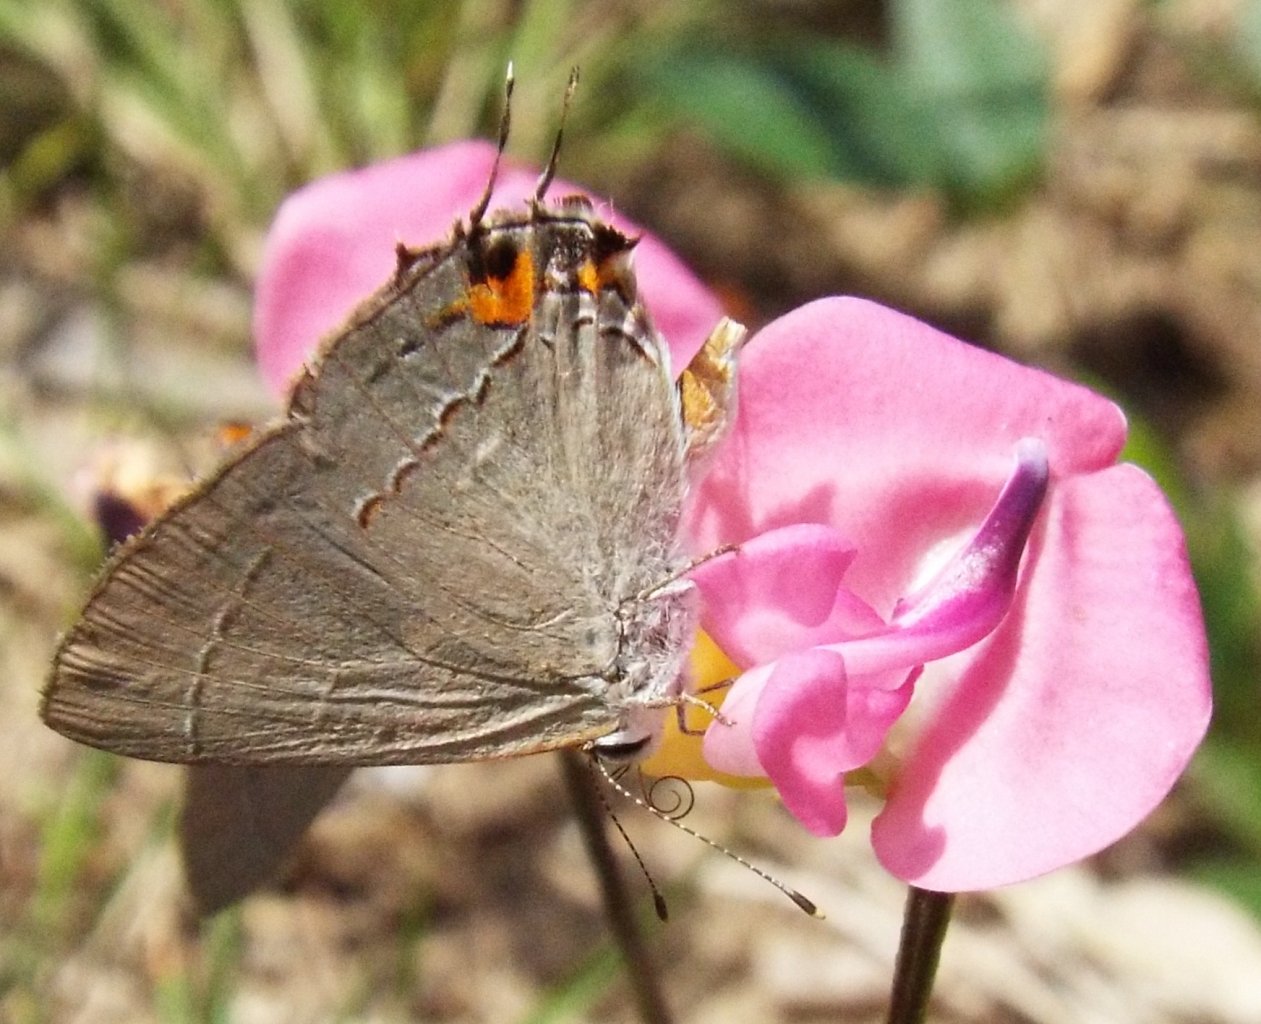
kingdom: Animalia
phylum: Arthropoda
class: Insecta
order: Lepidoptera
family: Lycaenidae
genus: Strymon
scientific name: Strymon melinus
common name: Gray Hairstreak
